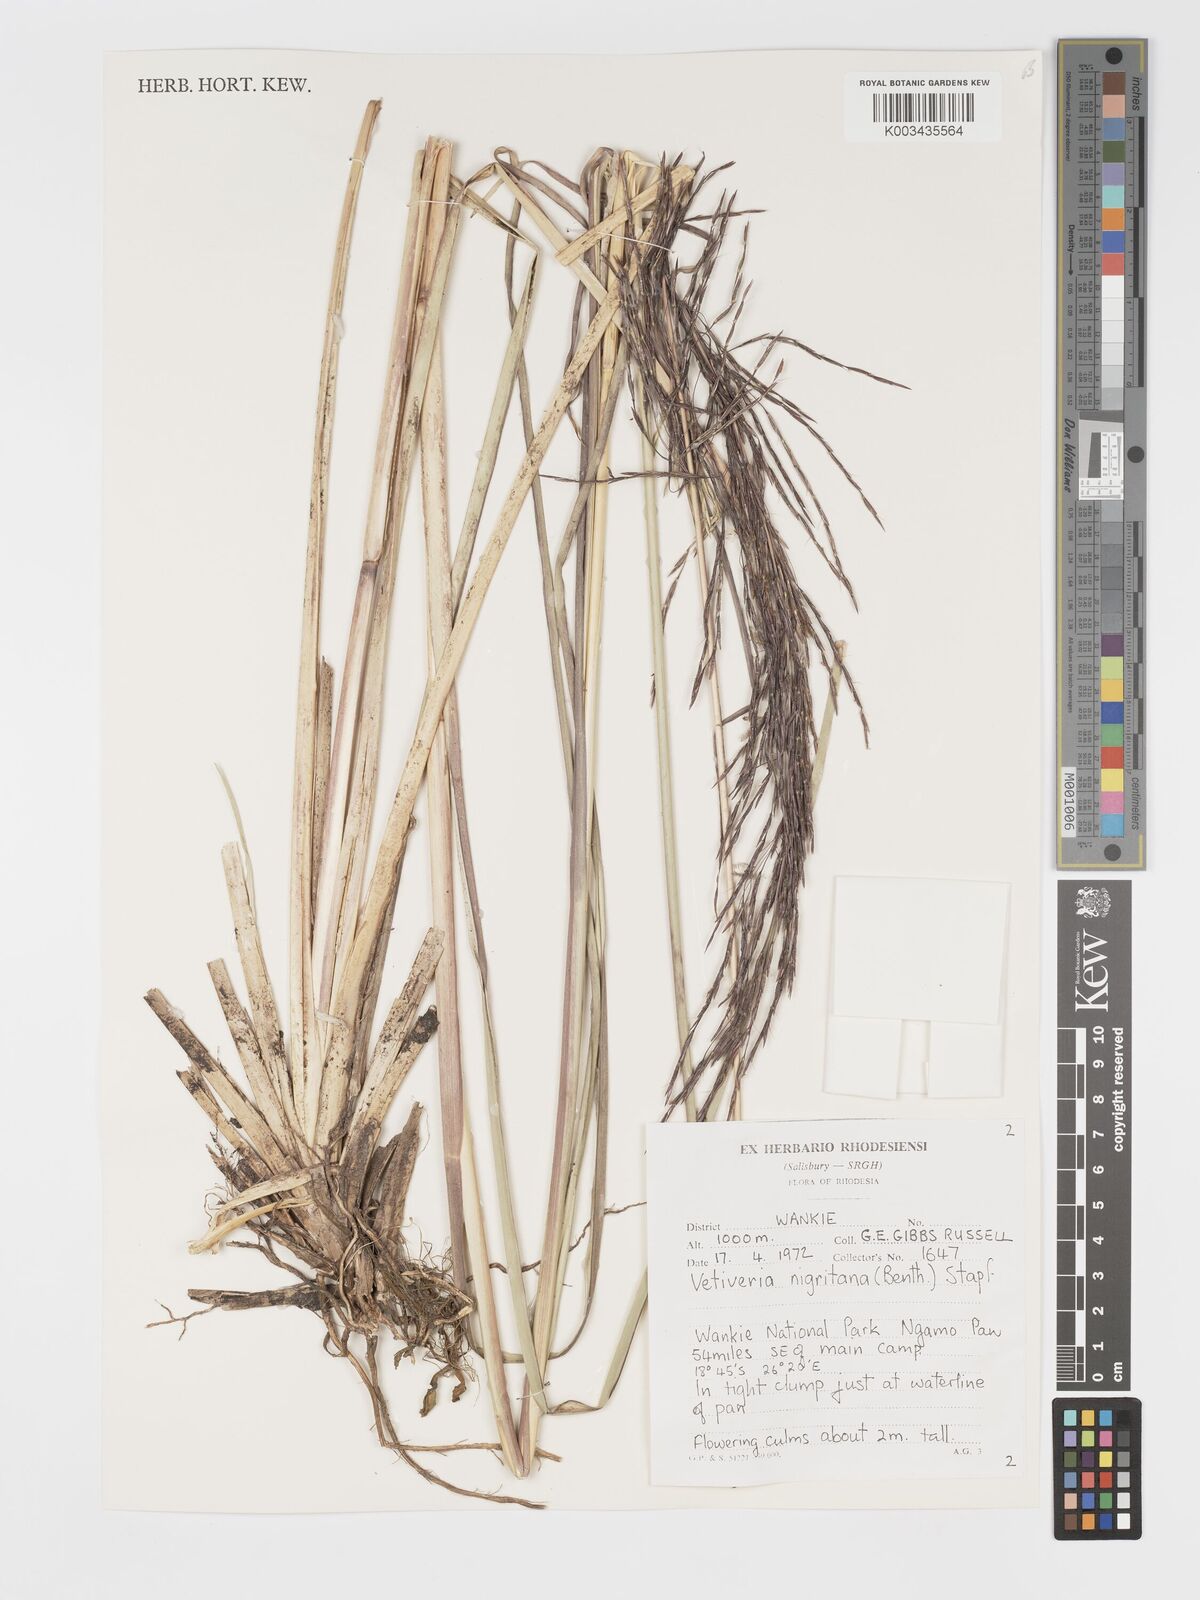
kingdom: Plantae
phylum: Tracheophyta
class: Liliopsida
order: Poales
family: Poaceae
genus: Chrysopogon
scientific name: Chrysopogon nigritanus
